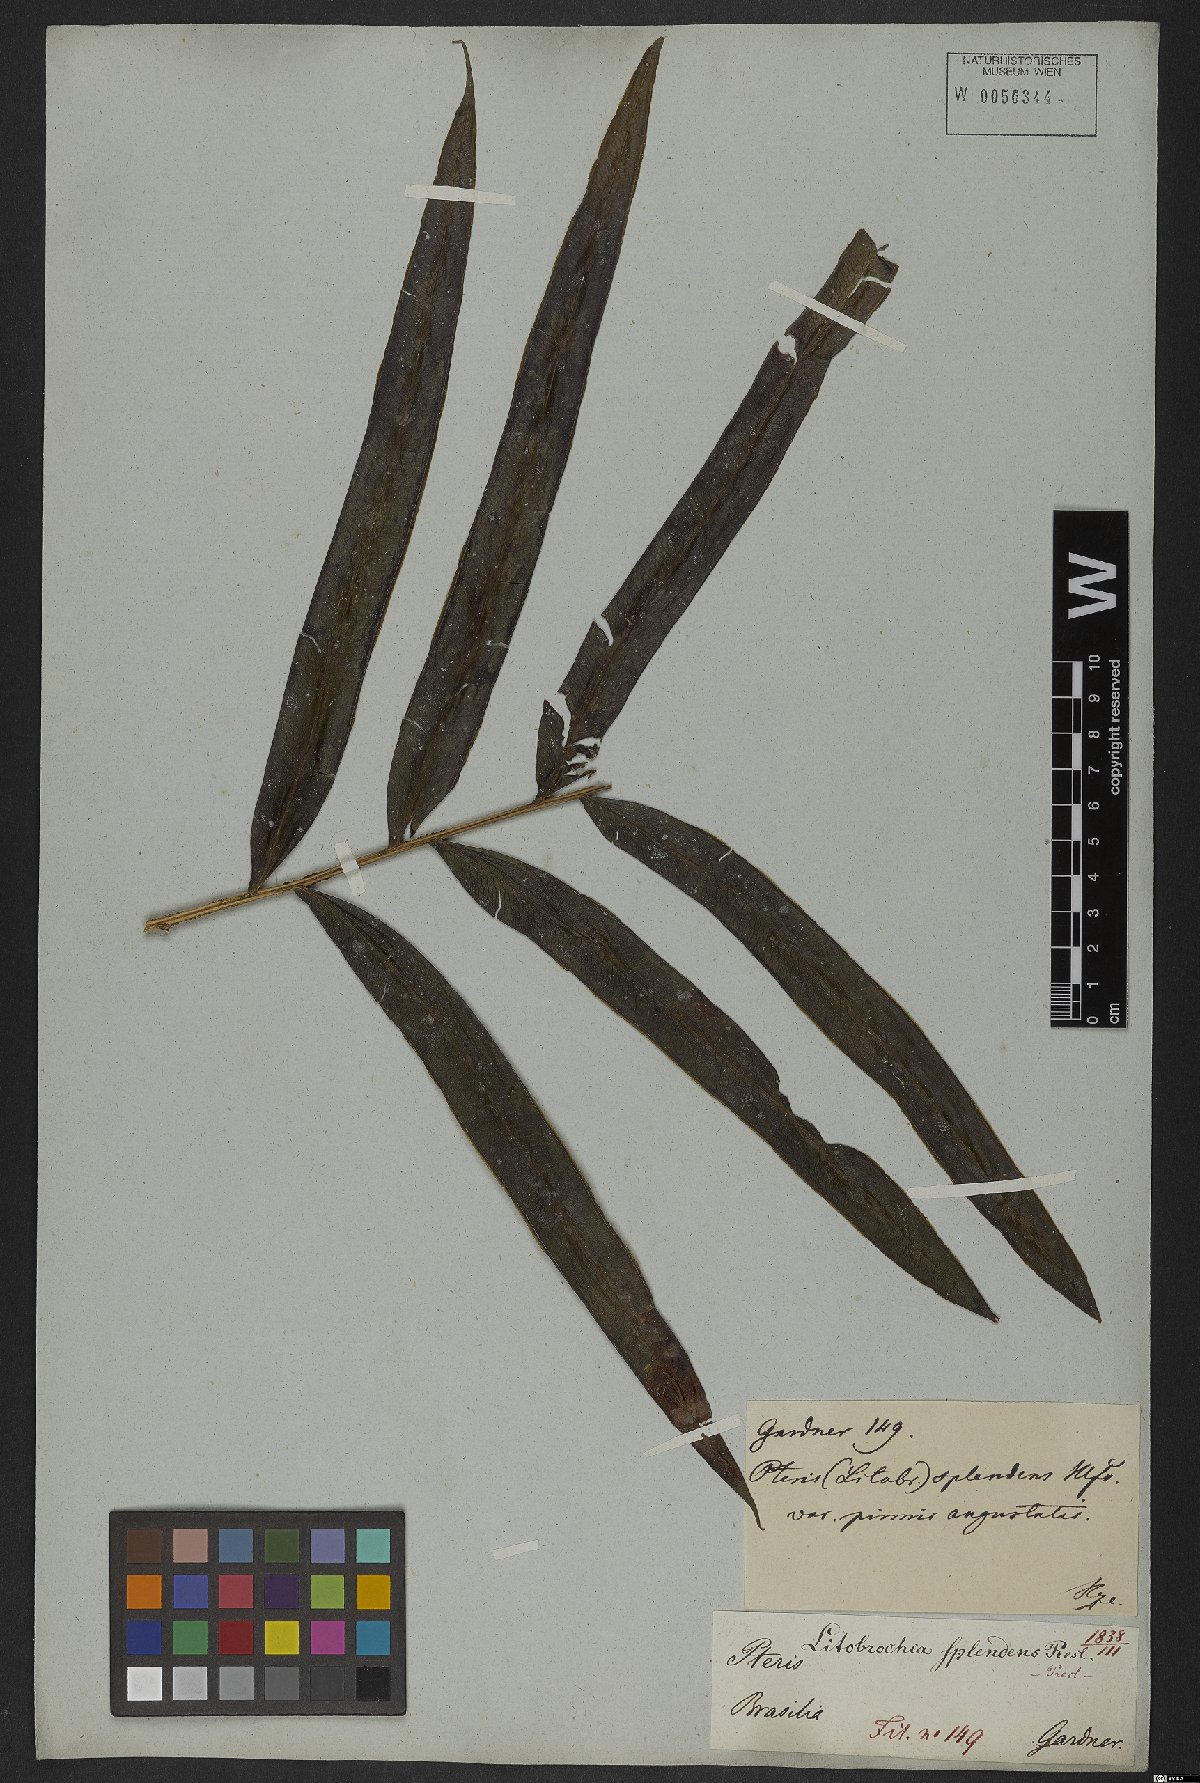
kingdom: Plantae
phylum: Tracheophyta
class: Polypodiopsida
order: Polypodiales
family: Pteridaceae
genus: Pteris
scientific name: Pteris splendens
